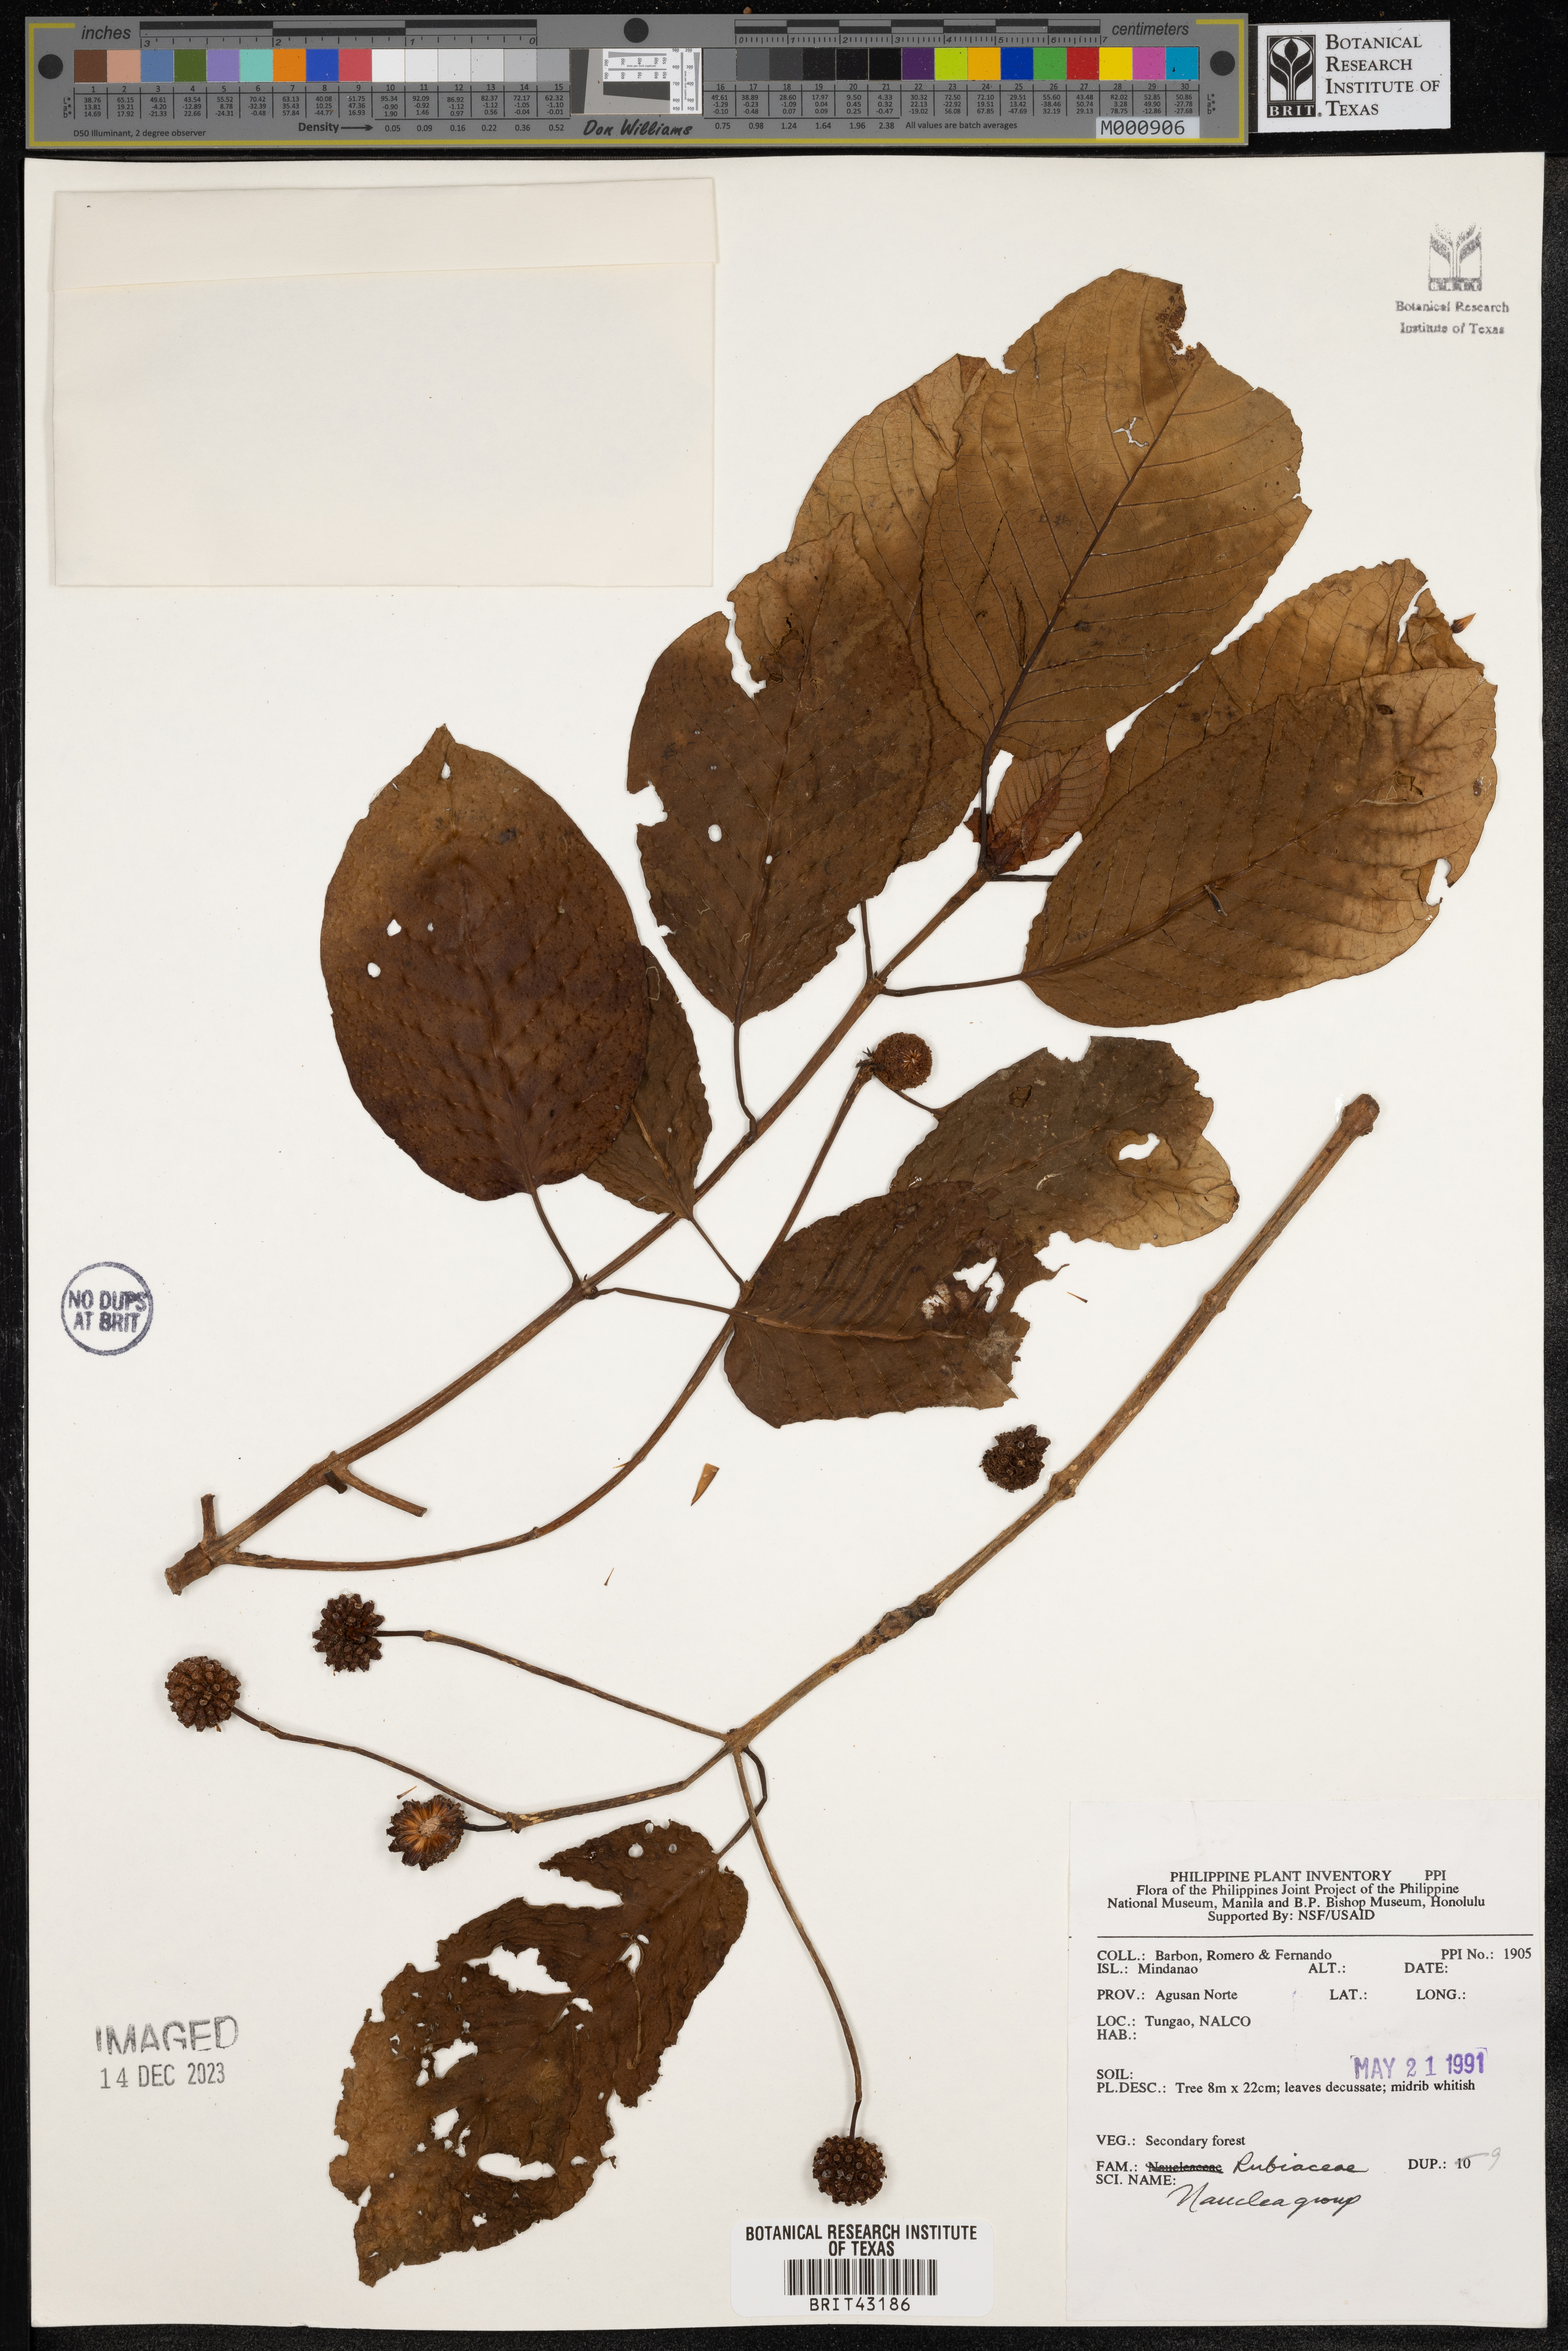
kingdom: Plantae
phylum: Tracheophyta
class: Magnoliopsida
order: Gentianales
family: Rubiaceae
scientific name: Rubiaceae
